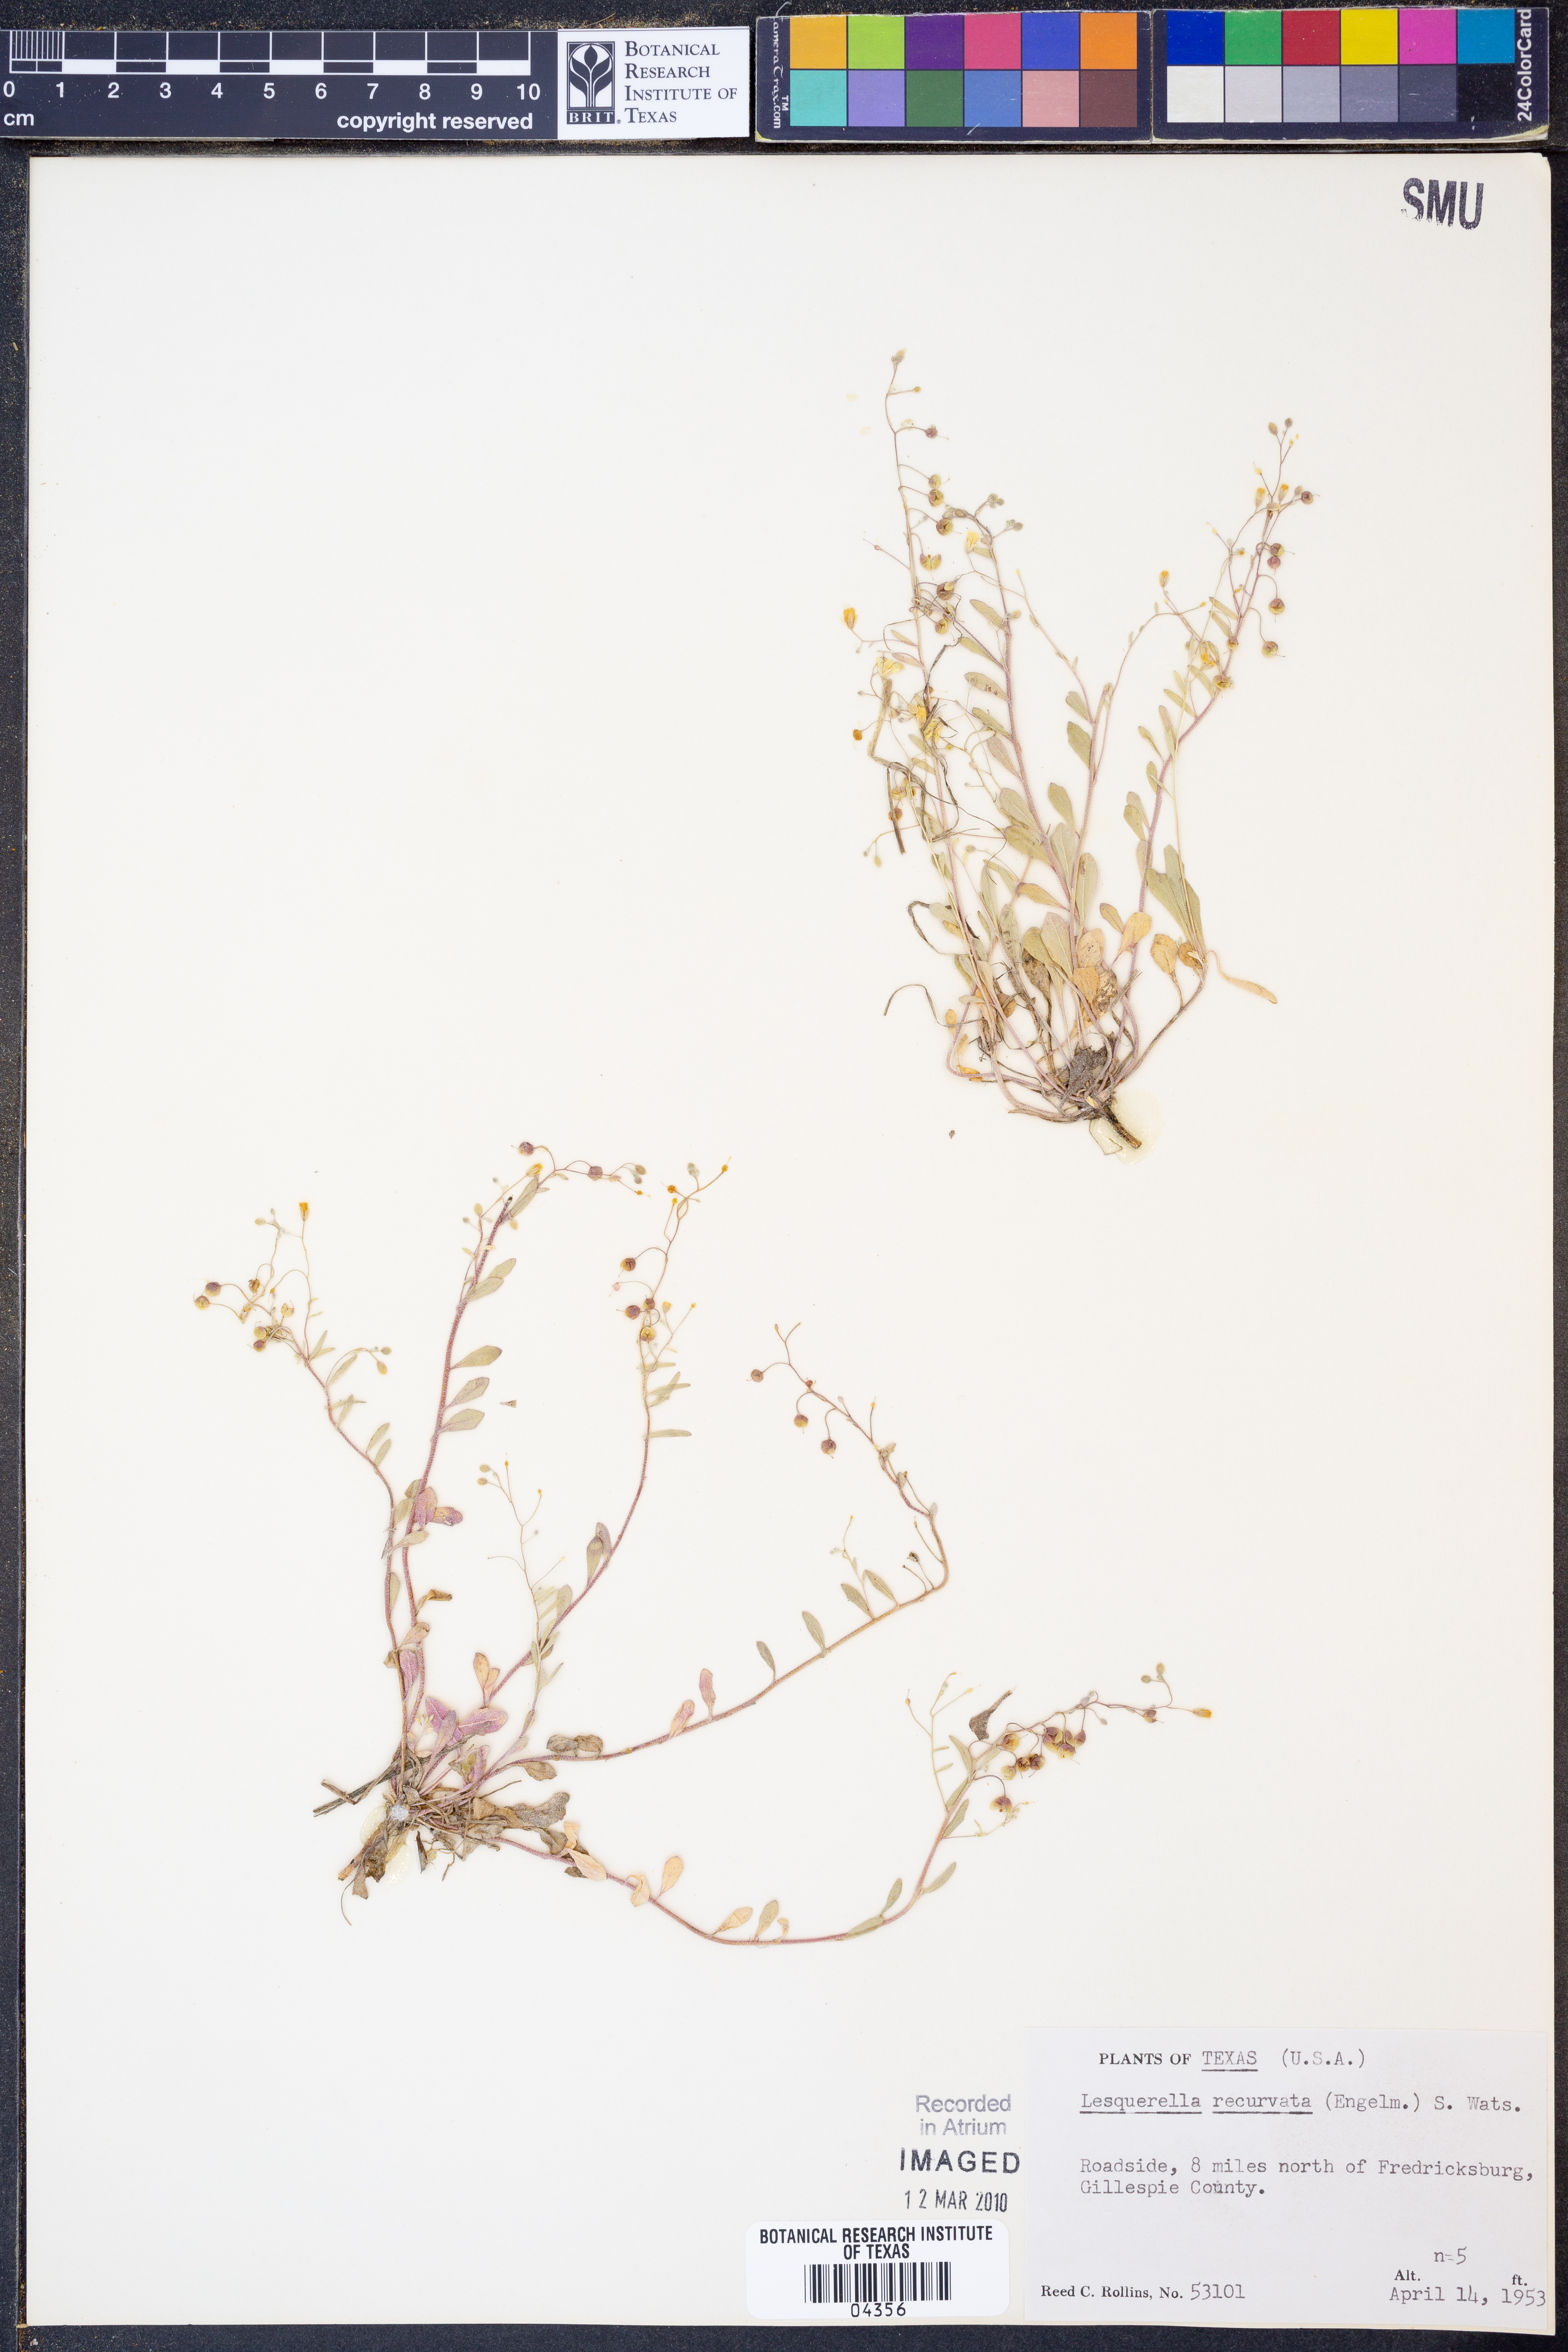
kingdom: Plantae
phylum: Tracheophyta
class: Magnoliopsida
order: Brassicales
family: Brassicaceae
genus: Physaria
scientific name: Physaria recurvata
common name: Gaslight bladderpod
